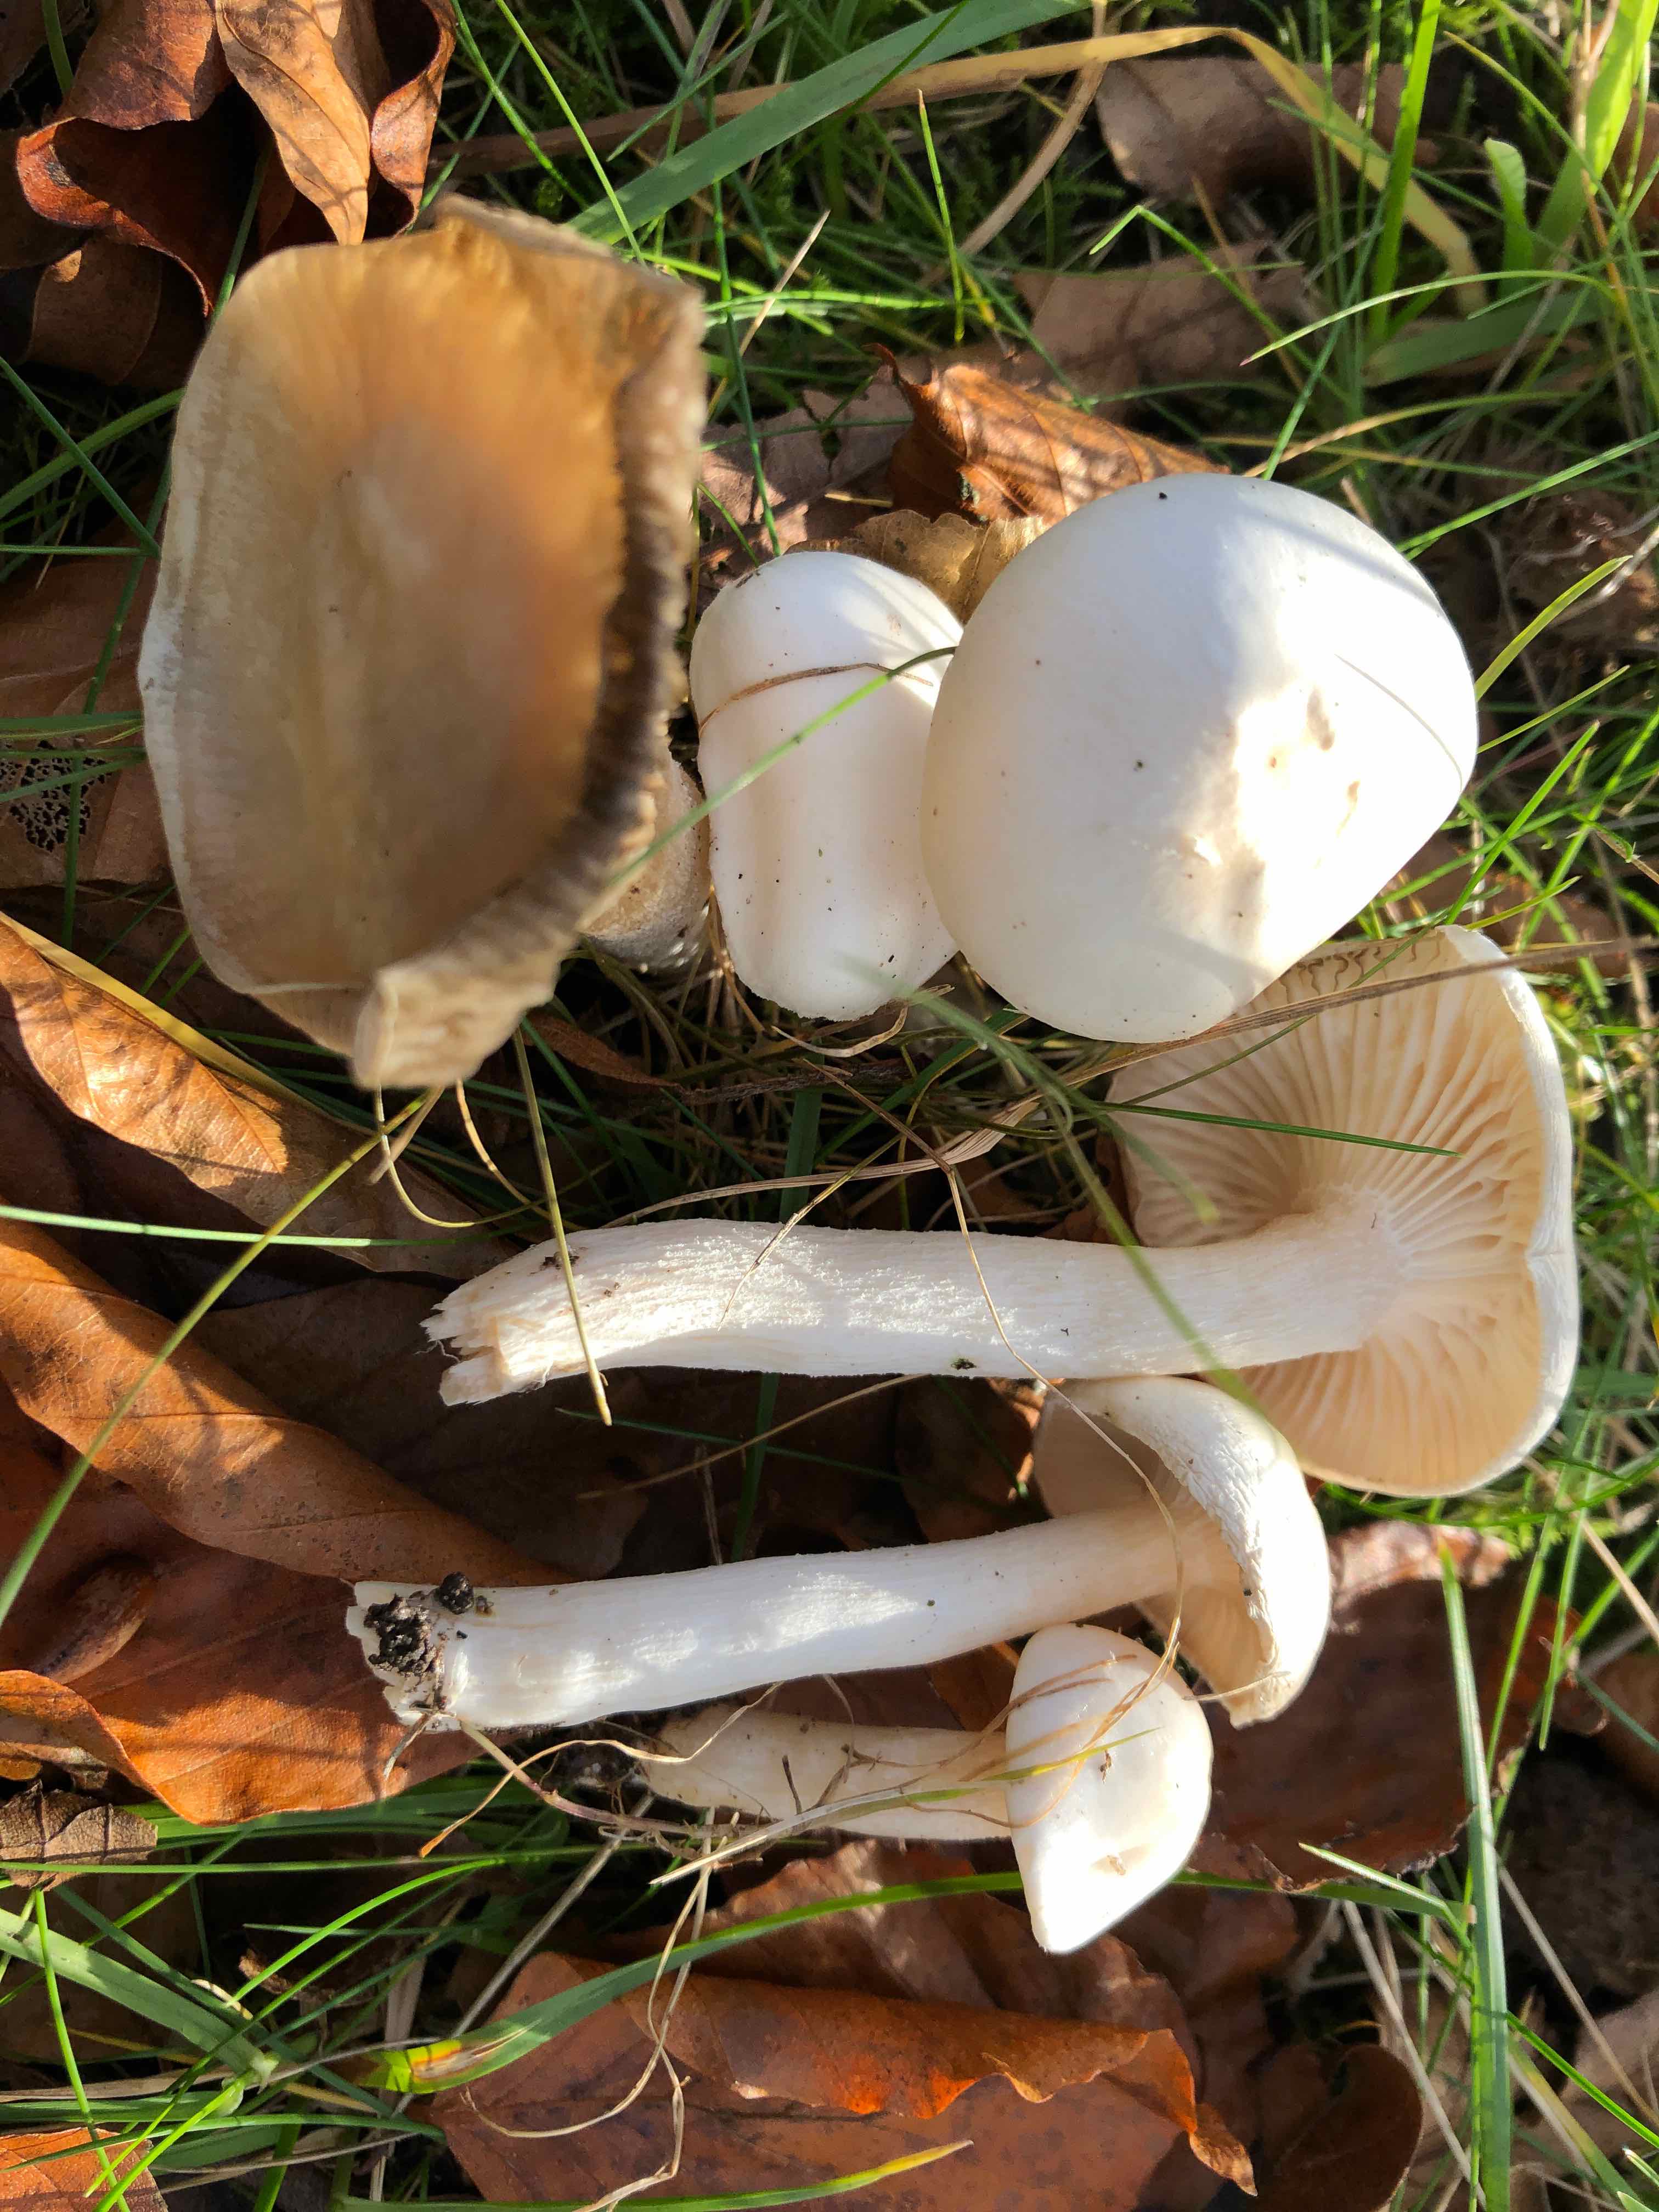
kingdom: Fungi
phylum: Basidiomycota
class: Agaricomycetes
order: Agaricales
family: Hygrophoraceae
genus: Hygrophorus
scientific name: Hygrophorus eburneus
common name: elfenbens-sneglehat
